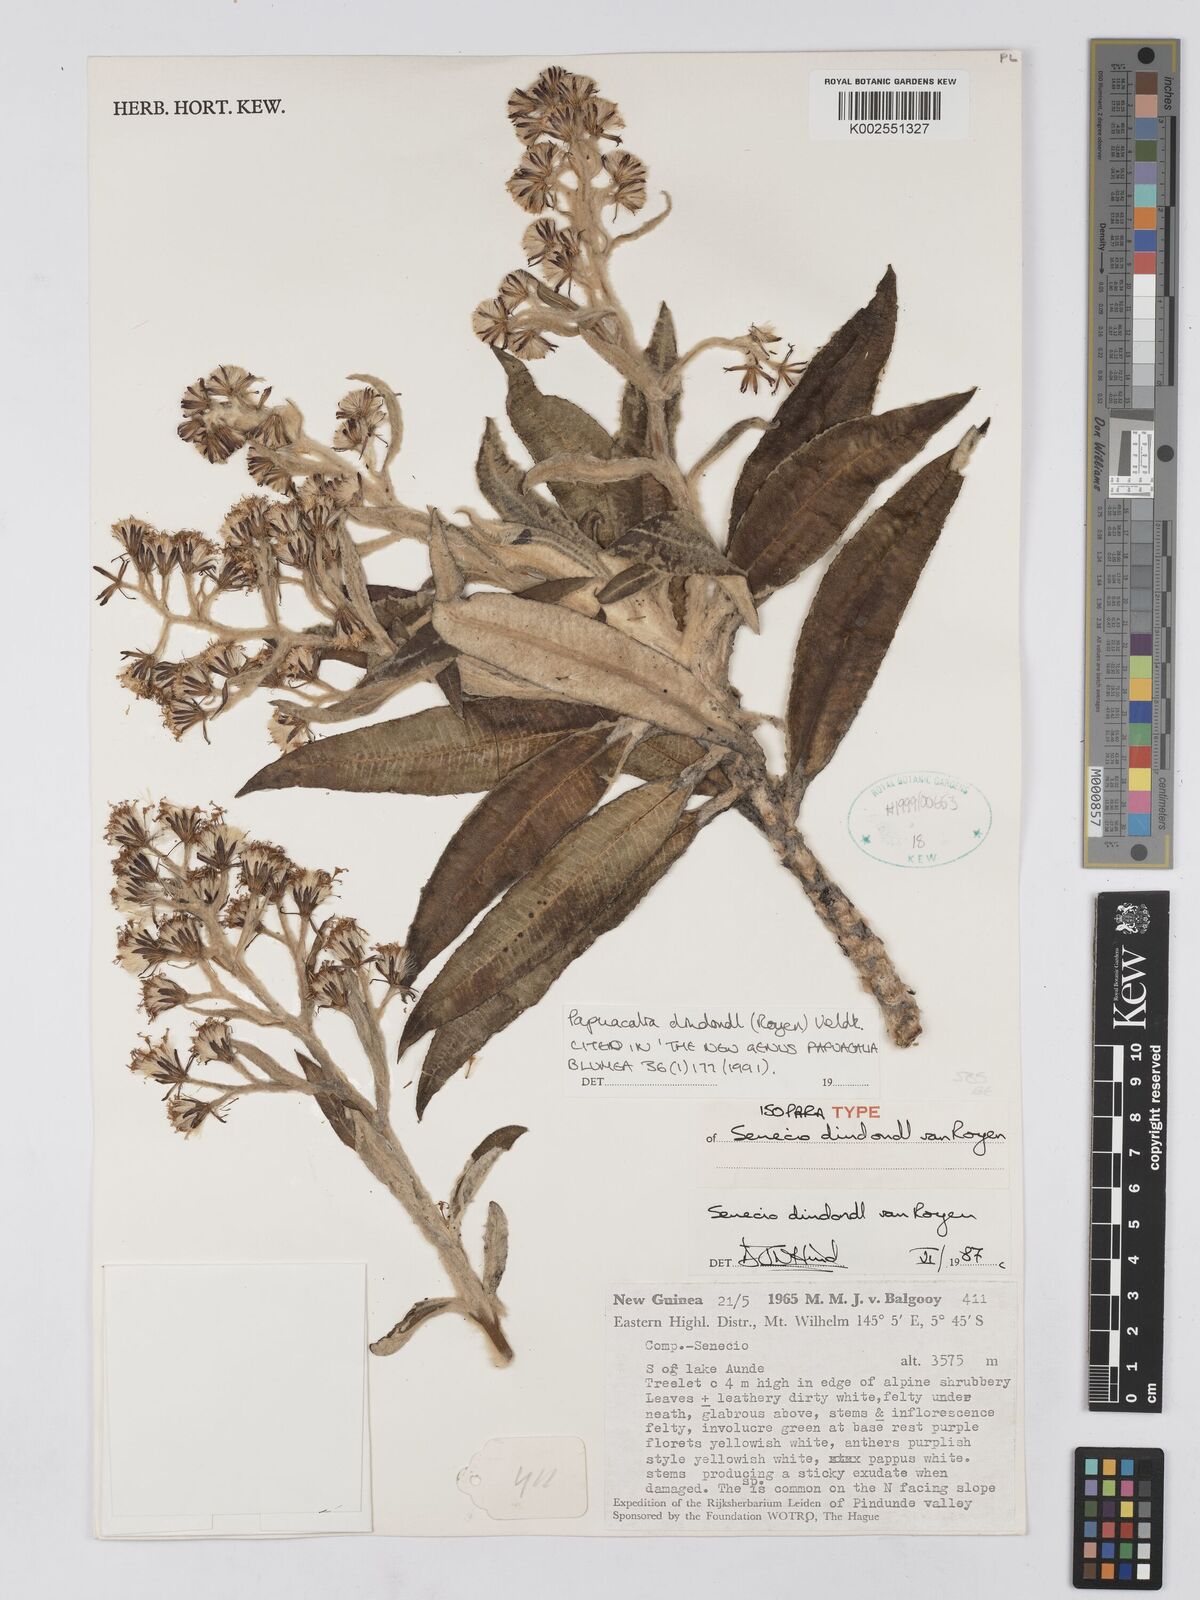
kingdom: Plantae
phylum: Tracheophyta
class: Magnoliopsida
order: Asterales
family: Asteraceae
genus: Papuacalia
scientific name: Papuacalia dindondl
